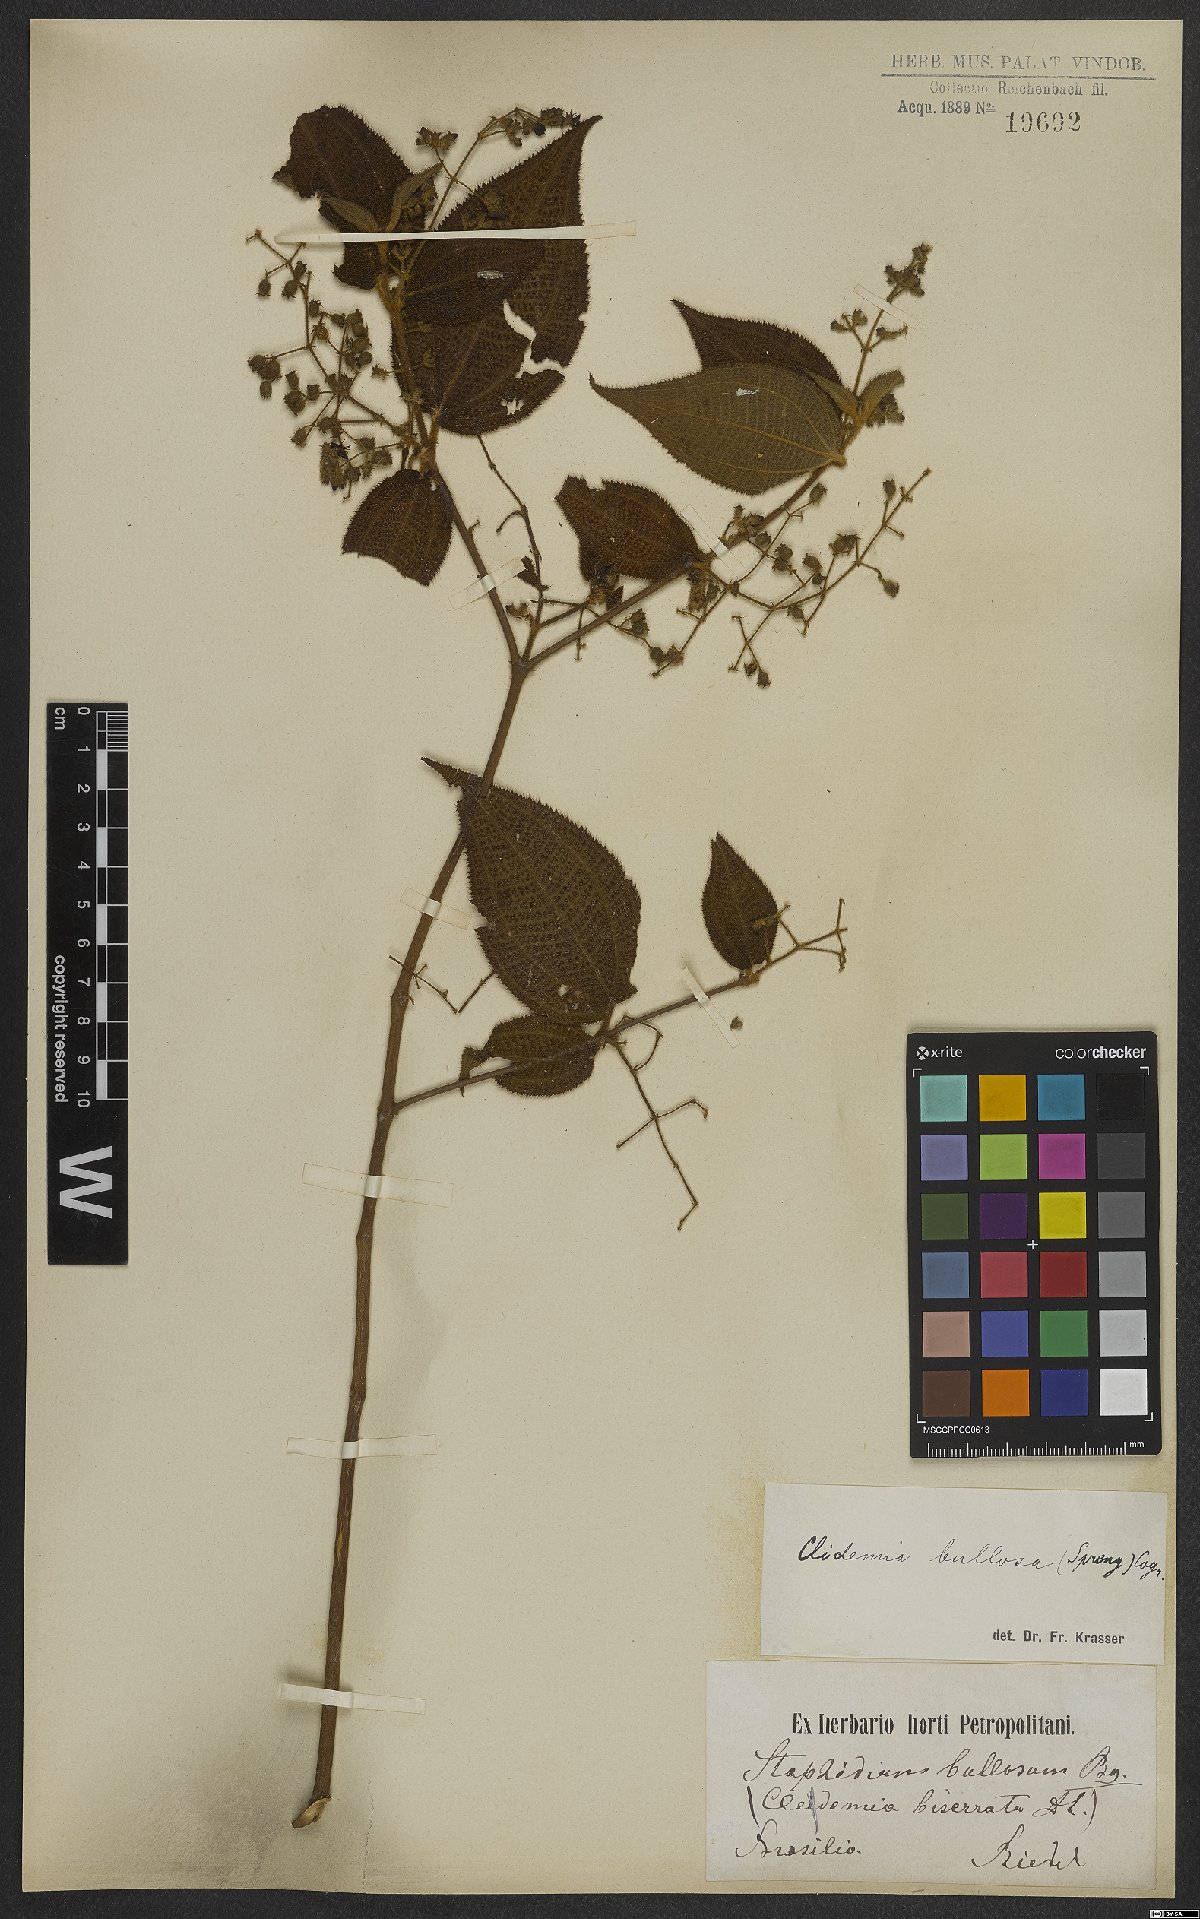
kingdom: Plantae
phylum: Tracheophyta
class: Magnoliopsida
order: Myrtales
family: Melastomataceae
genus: Miconia
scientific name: Miconia bullosa
